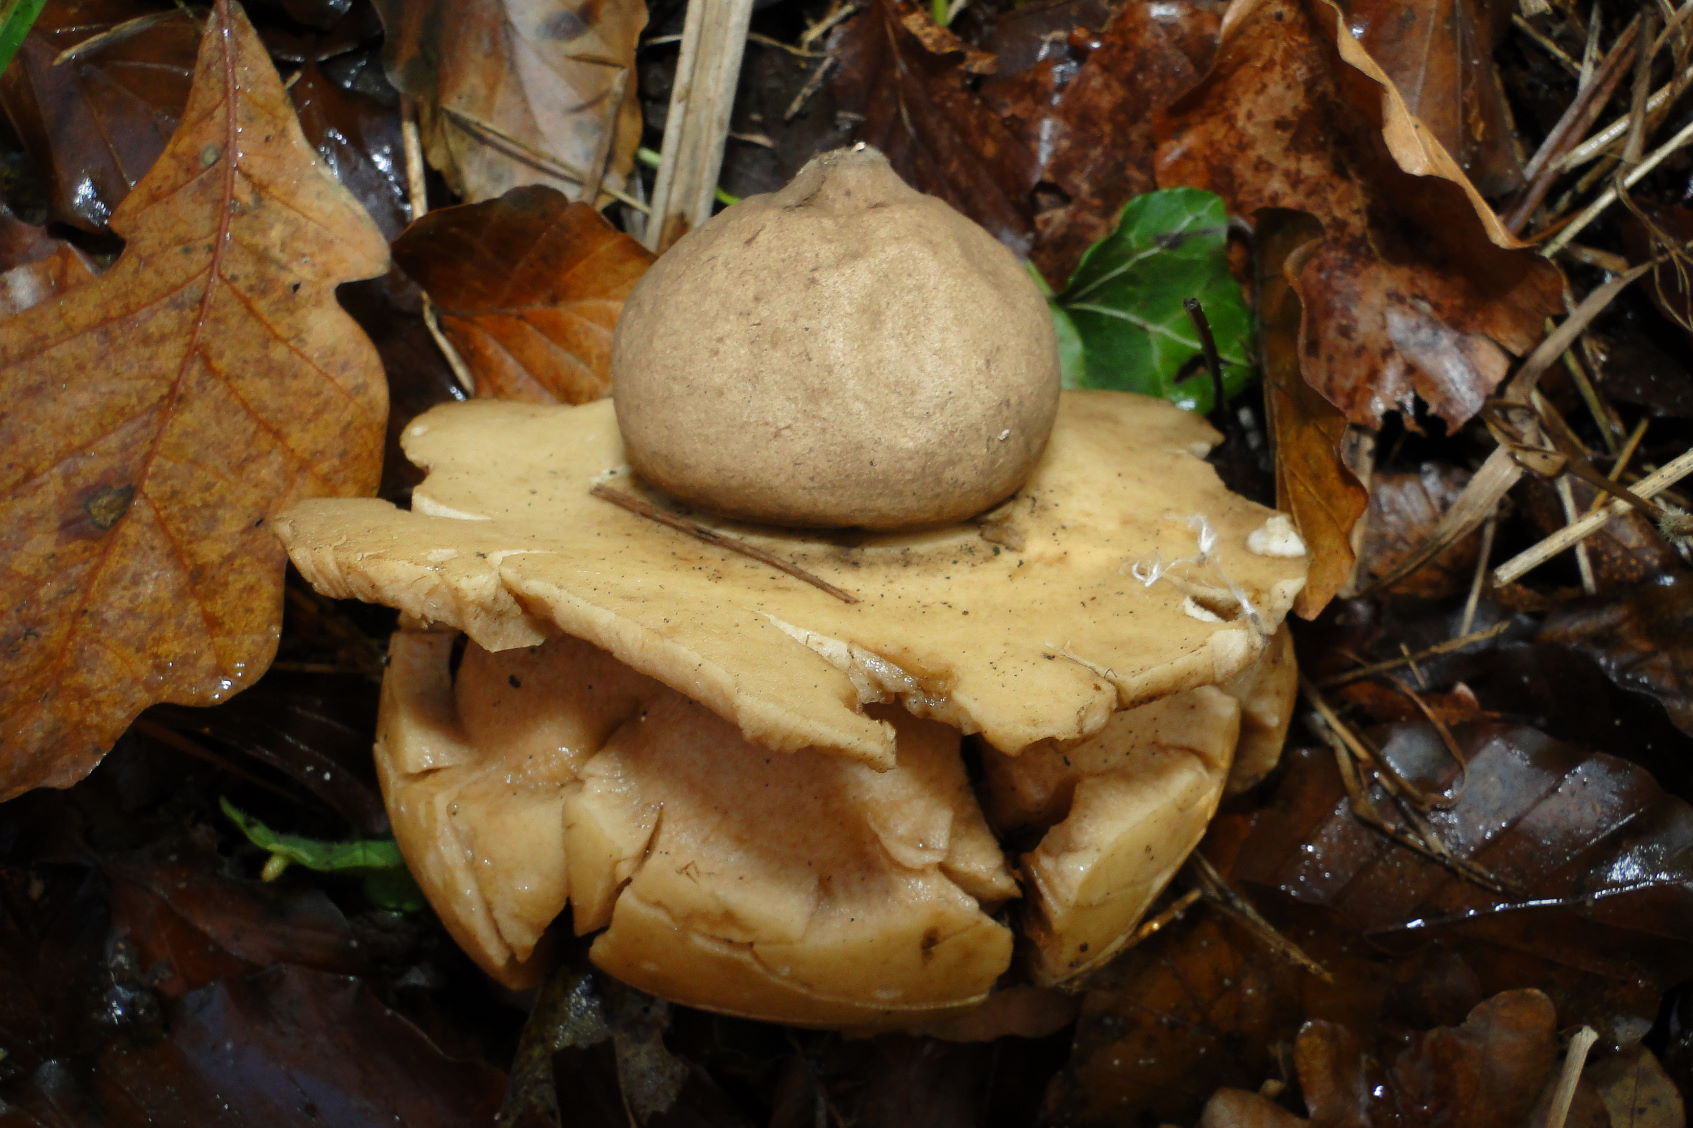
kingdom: Fungi
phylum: Basidiomycota
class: Agaricomycetes
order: Geastrales
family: Geastraceae
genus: Geastrum
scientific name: Geastrum michelianum
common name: kødet stjernebold
